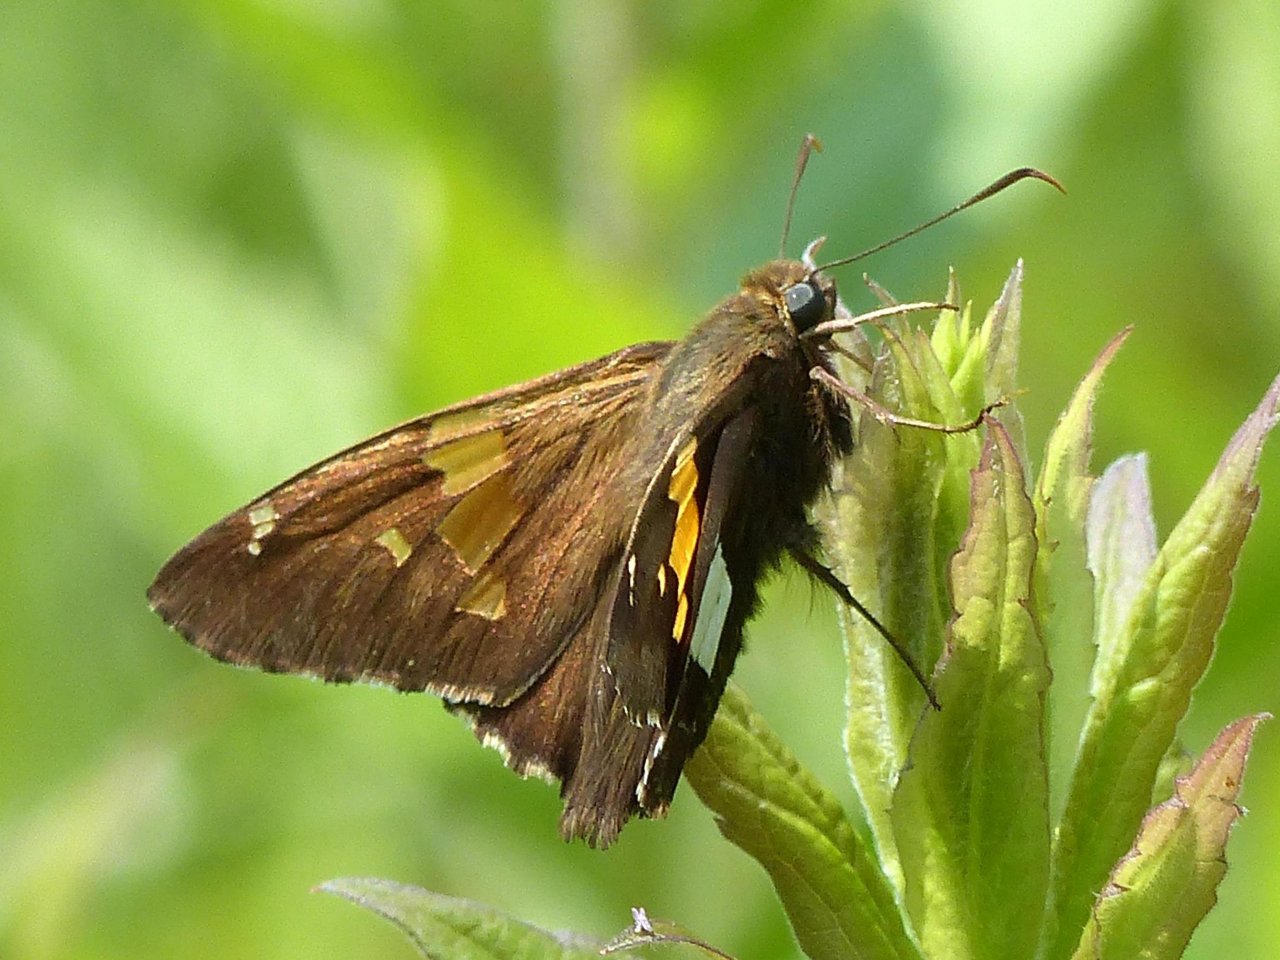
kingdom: Animalia
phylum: Arthropoda
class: Insecta
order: Lepidoptera
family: Hesperiidae
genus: Epargyreus
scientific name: Epargyreus clarus
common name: Silver-spotted Skipper
